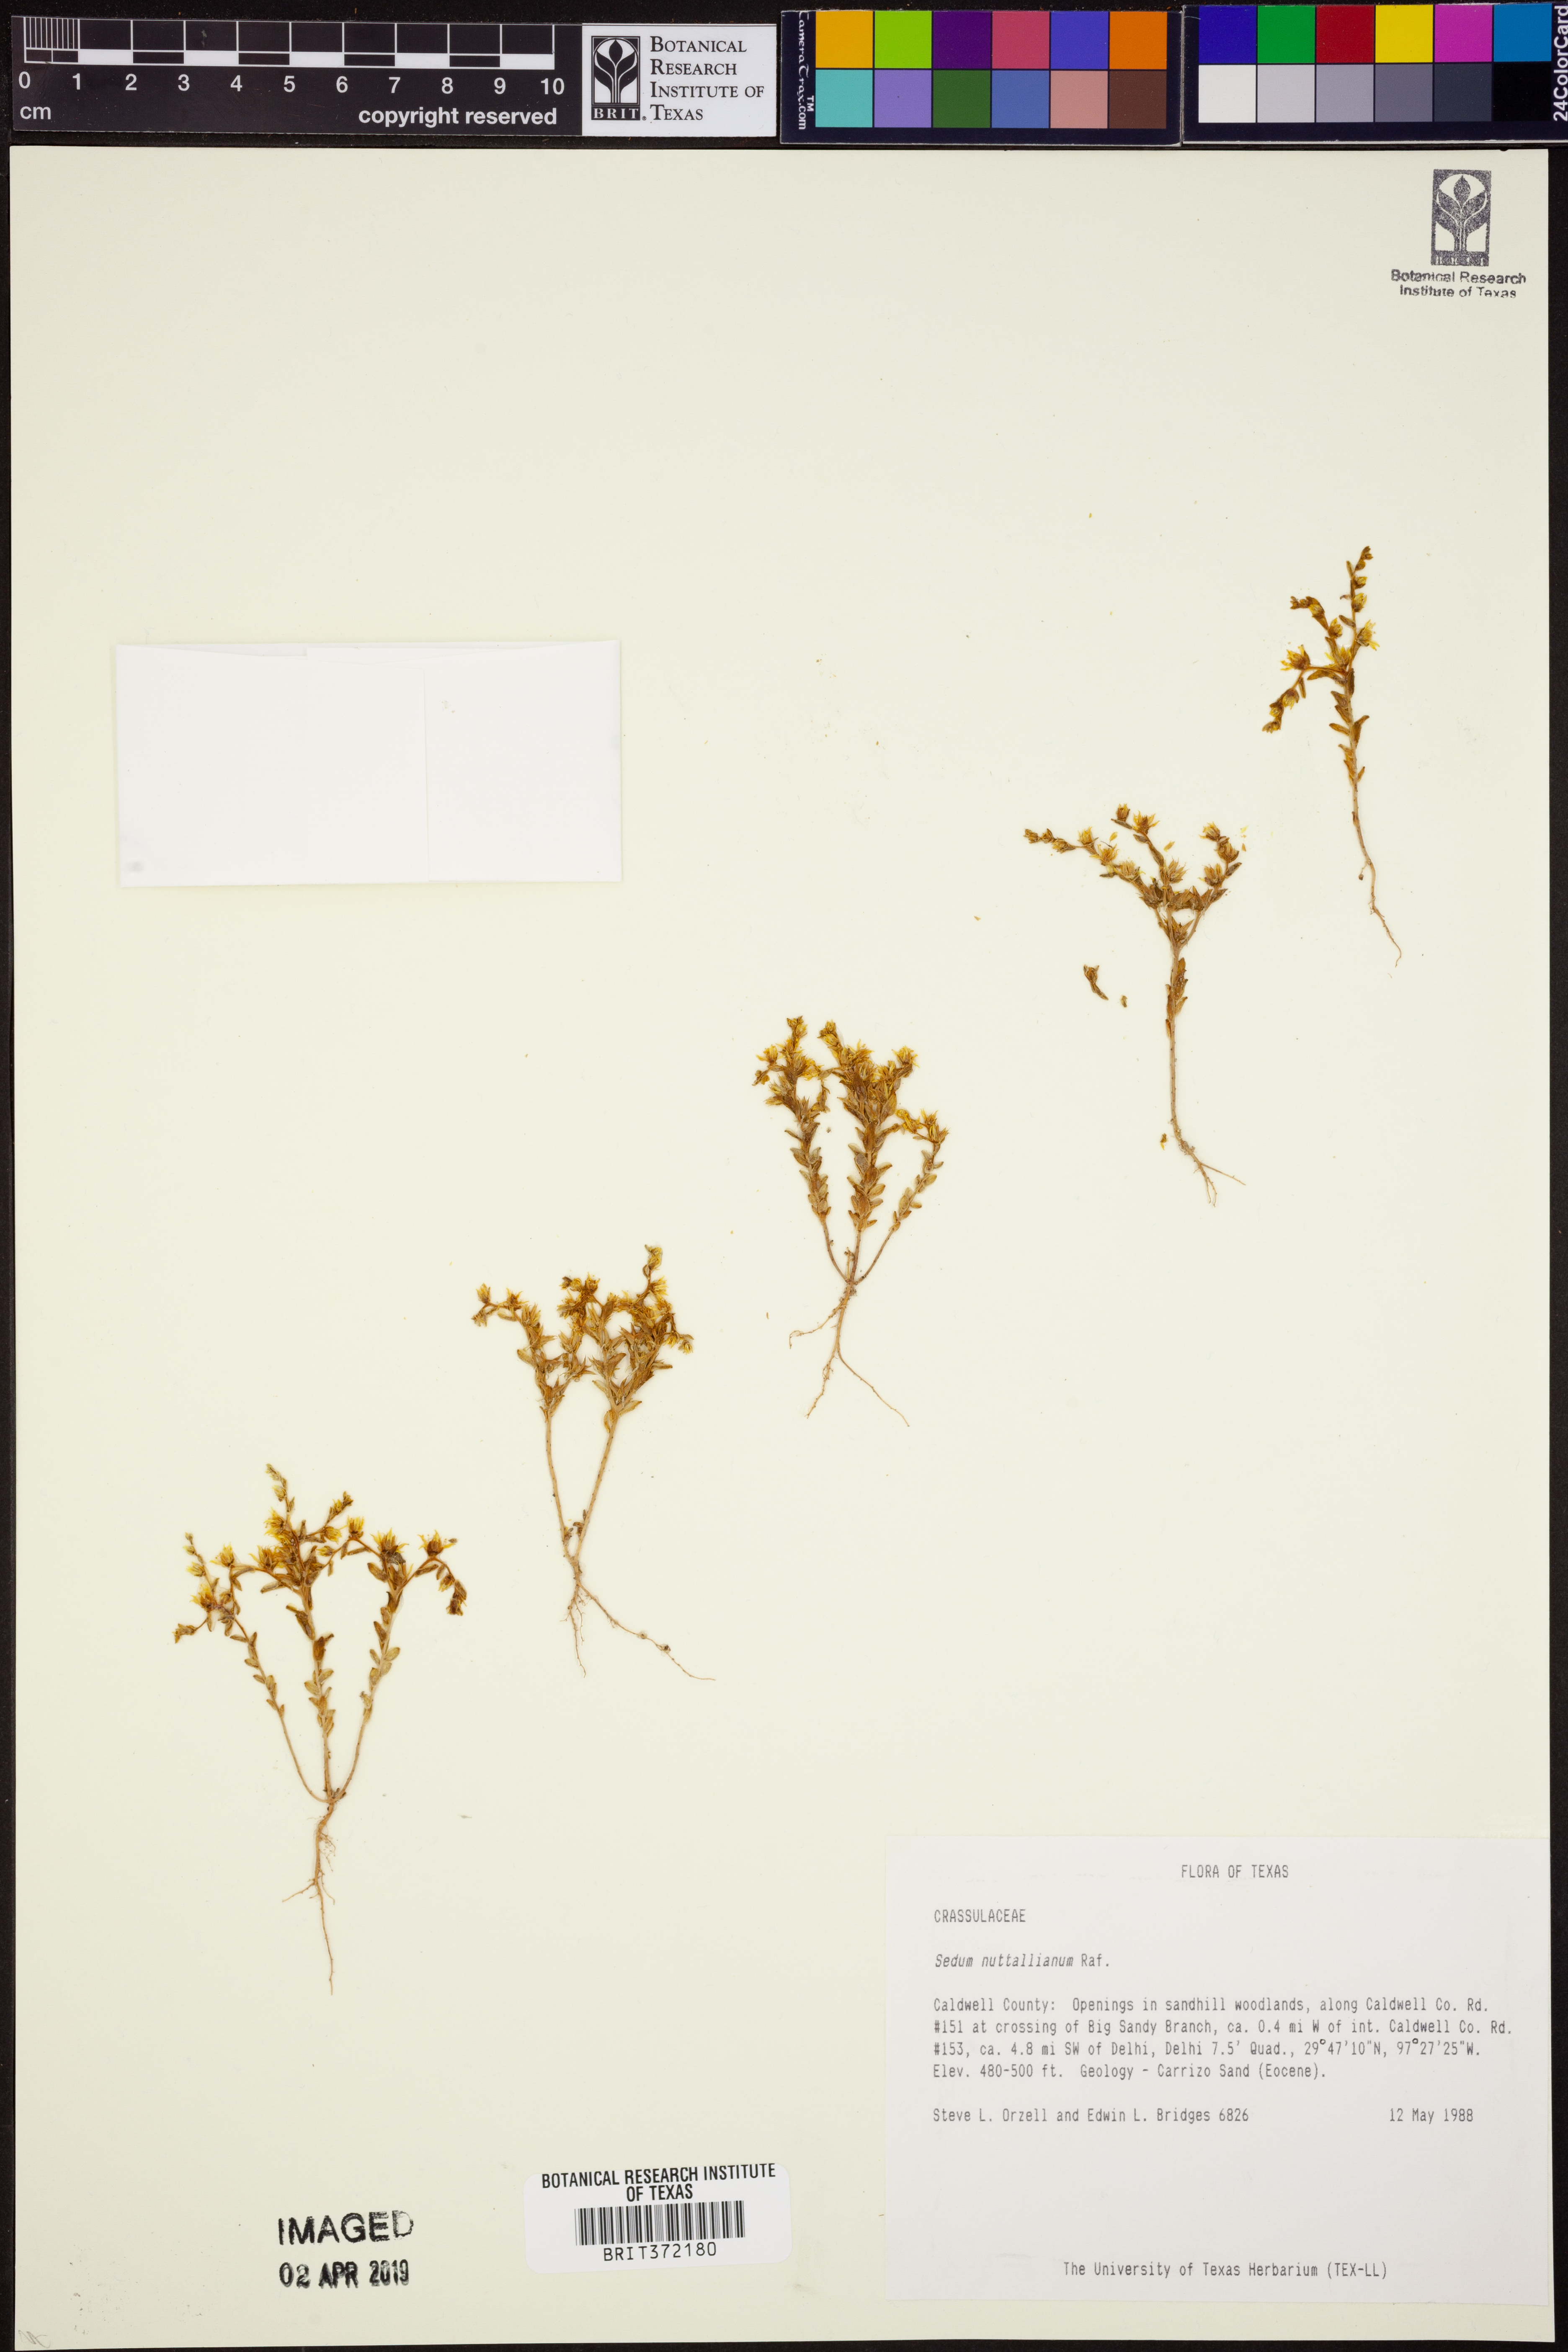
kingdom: Plantae
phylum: Tracheophyta
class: Magnoliopsida
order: Saxifragales
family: Crassulaceae
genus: Sedum
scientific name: Sedum nuttallii
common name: Yellow stonecrop
